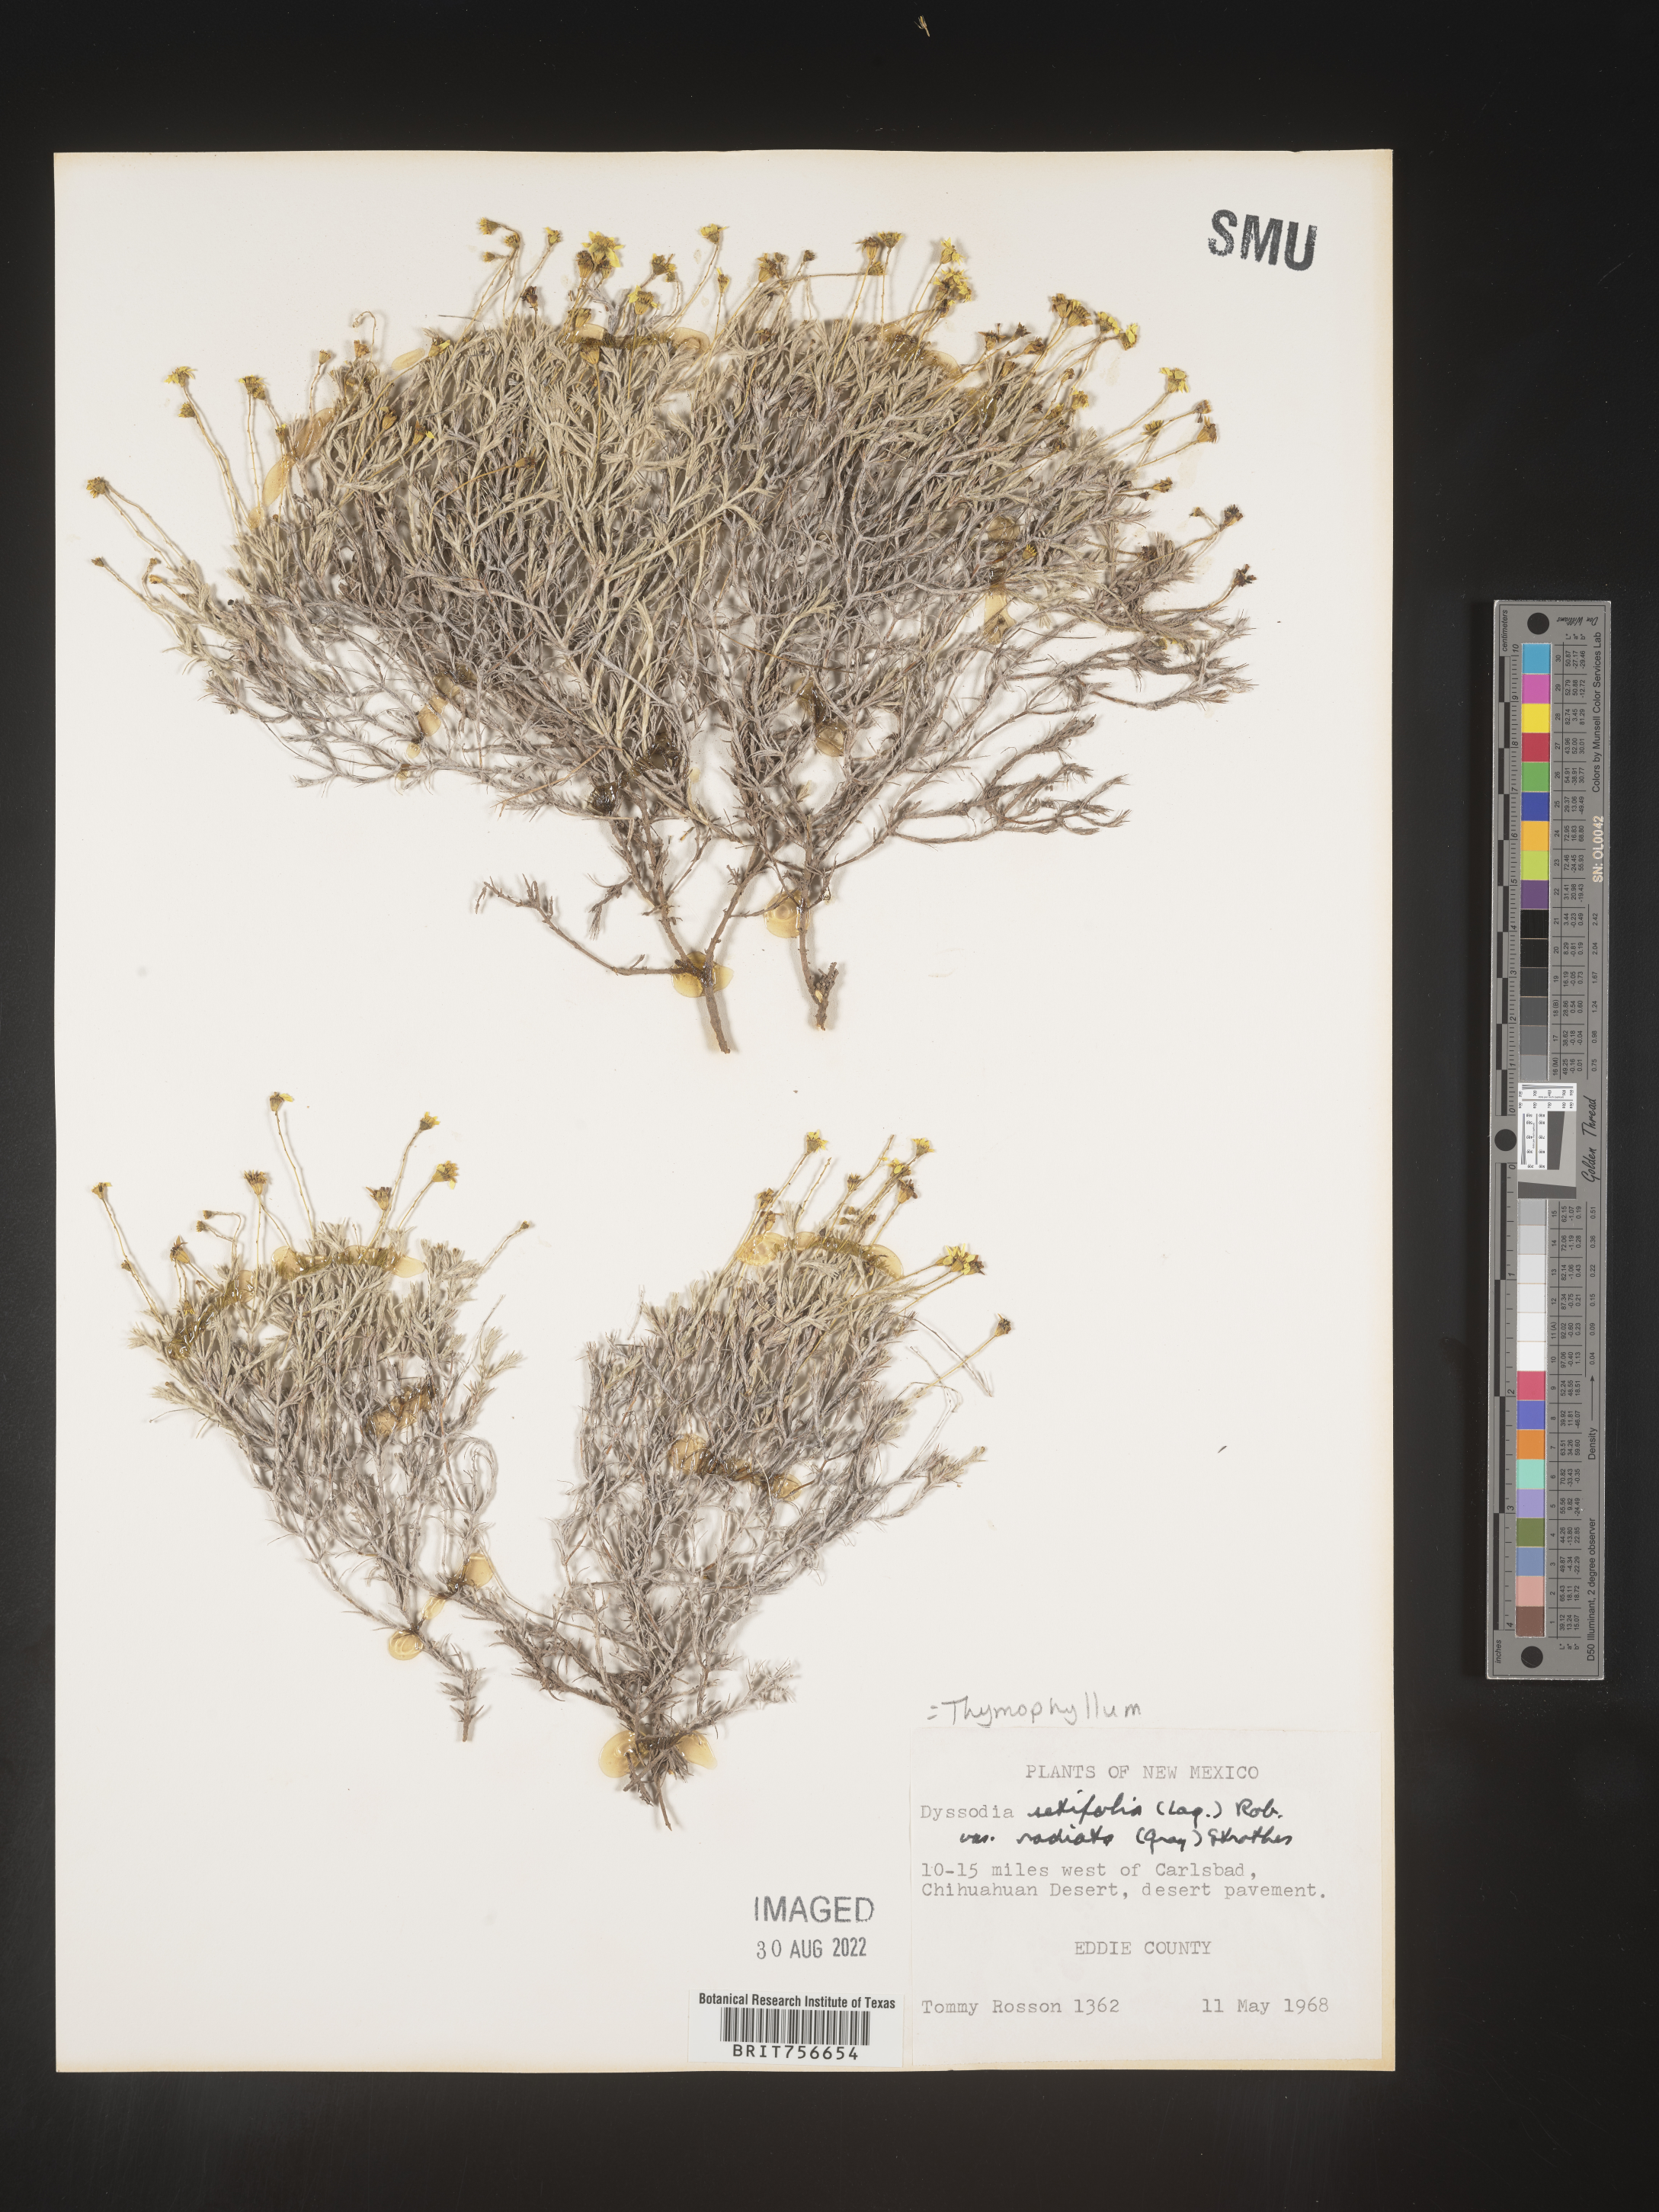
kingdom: Plantae
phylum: Tracheophyta
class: Magnoliopsida
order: Asterales
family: Asteraceae
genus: Thymophylla
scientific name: Thymophylla
